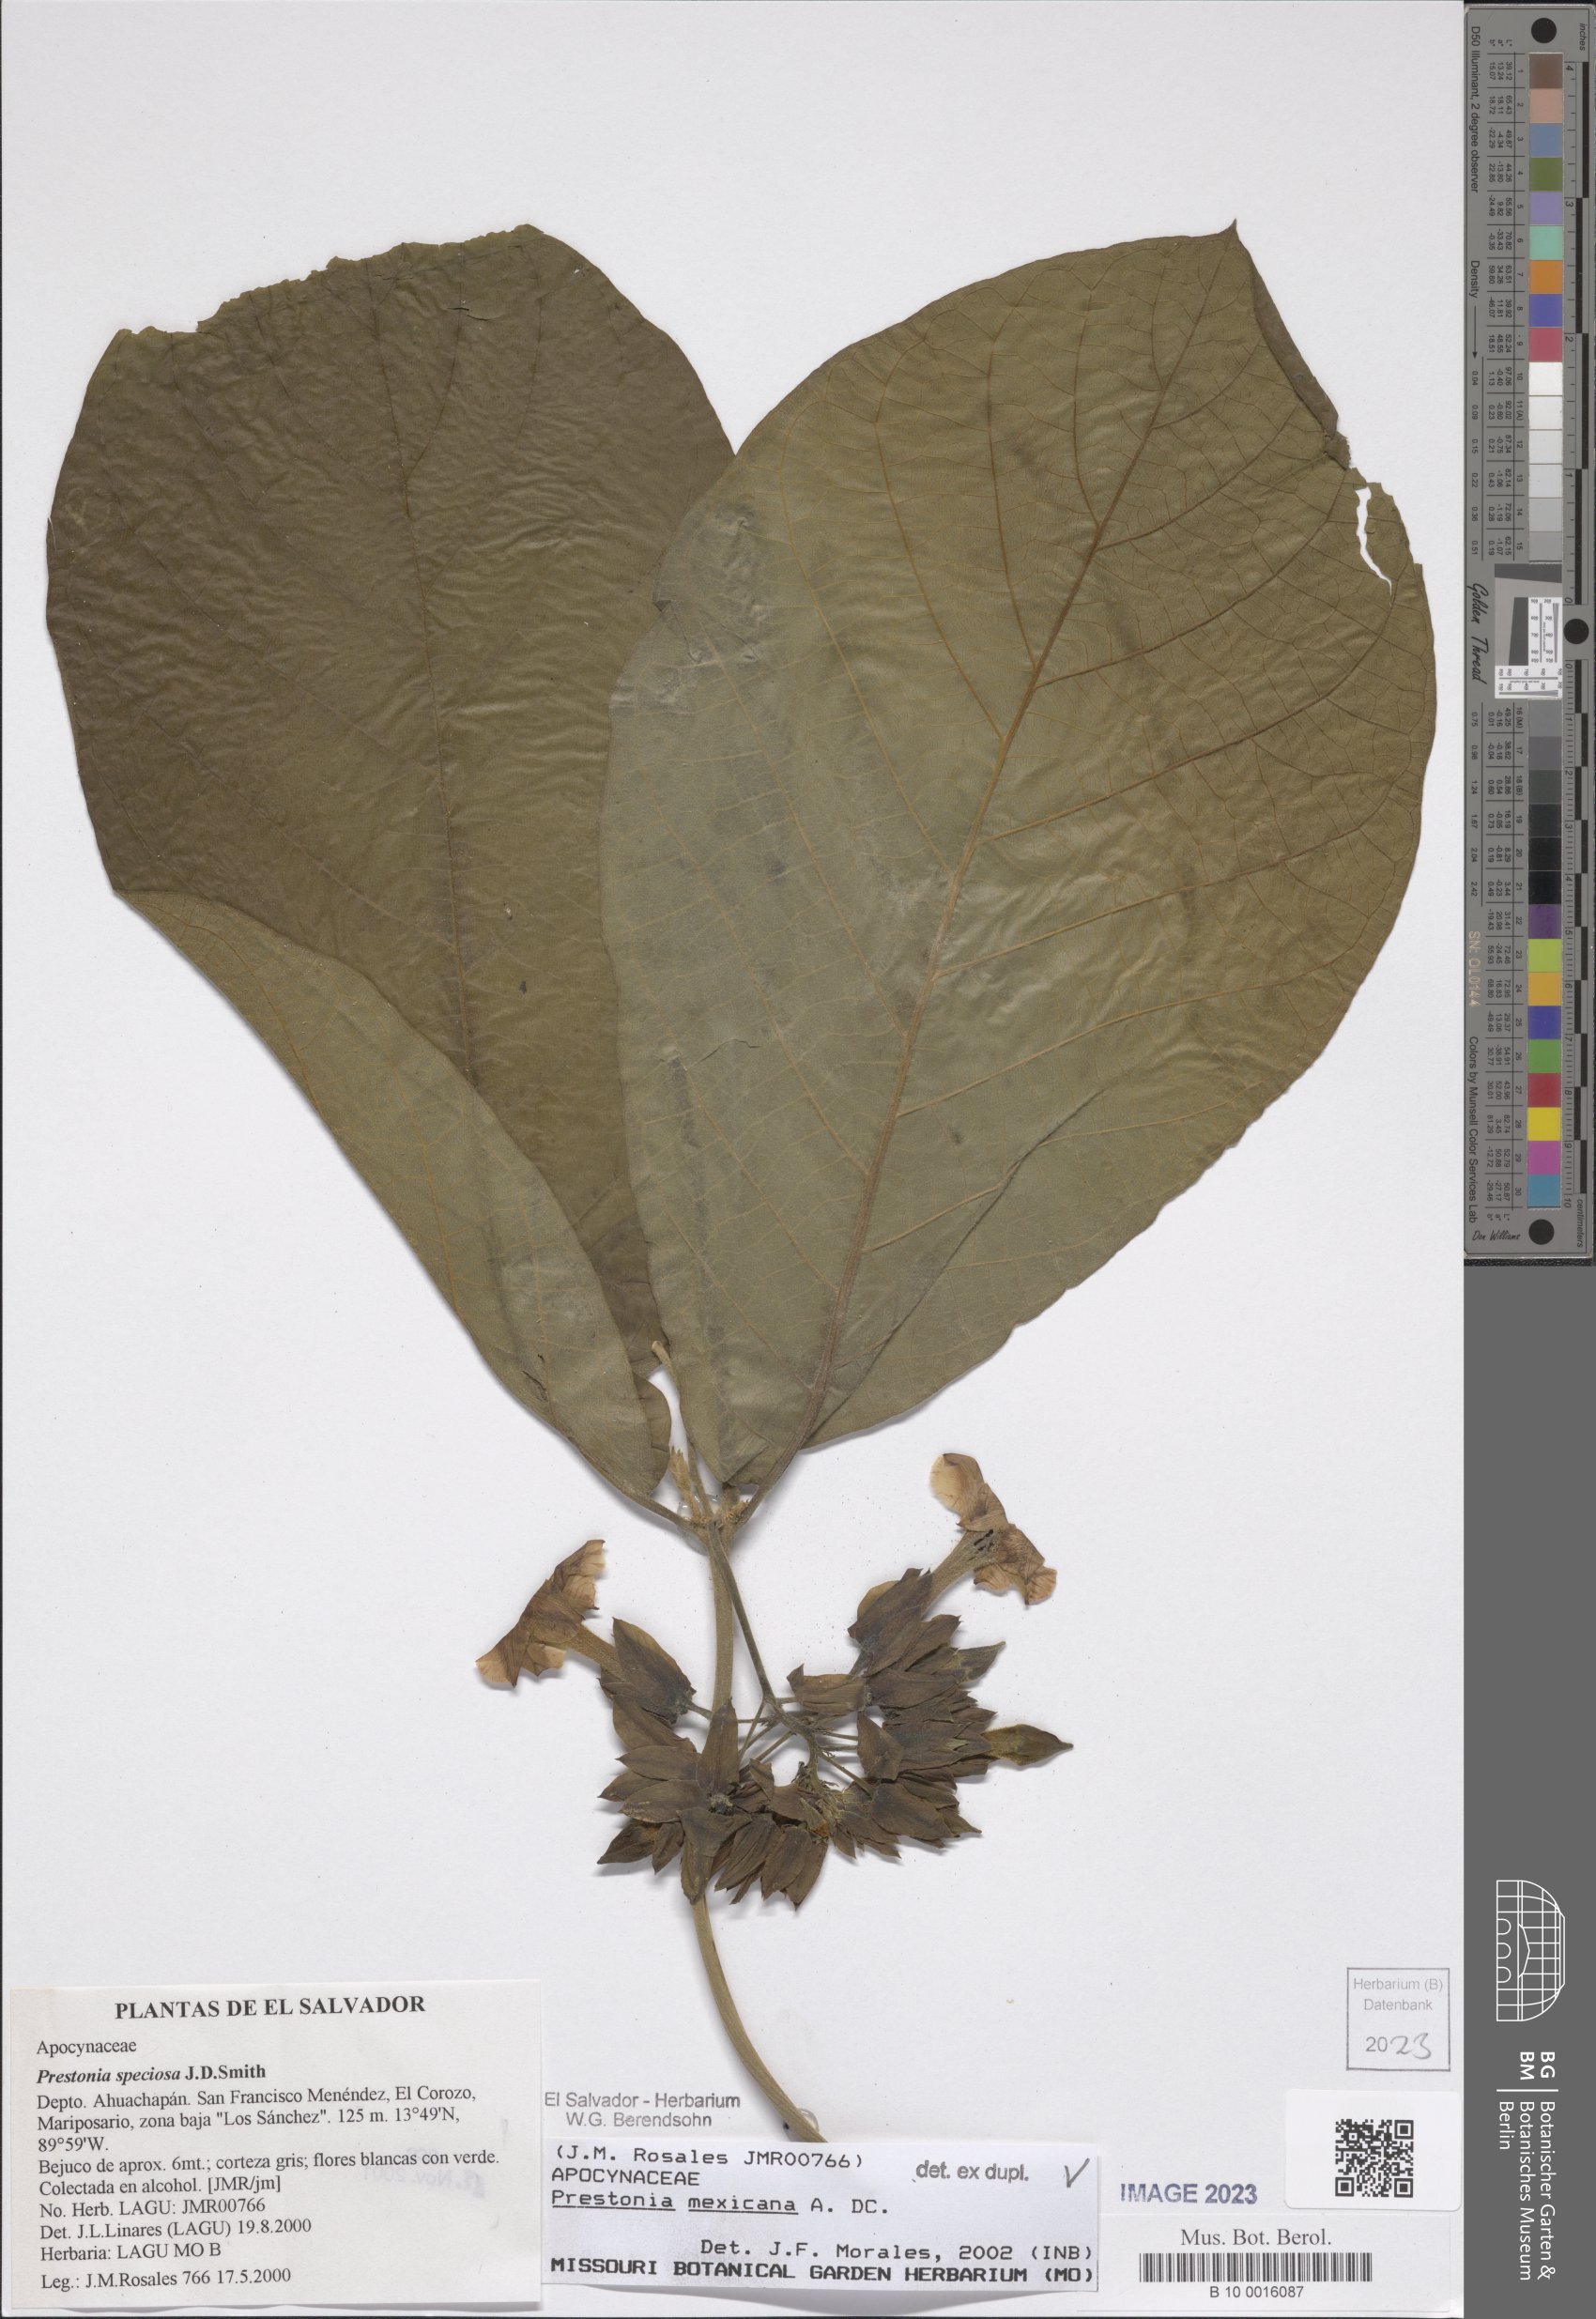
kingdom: Plantae
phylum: Tracheophyta
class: Magnoliopsida
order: Gentianales
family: Apocynaceae
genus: Prestonia
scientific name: Prestonia mexicana
